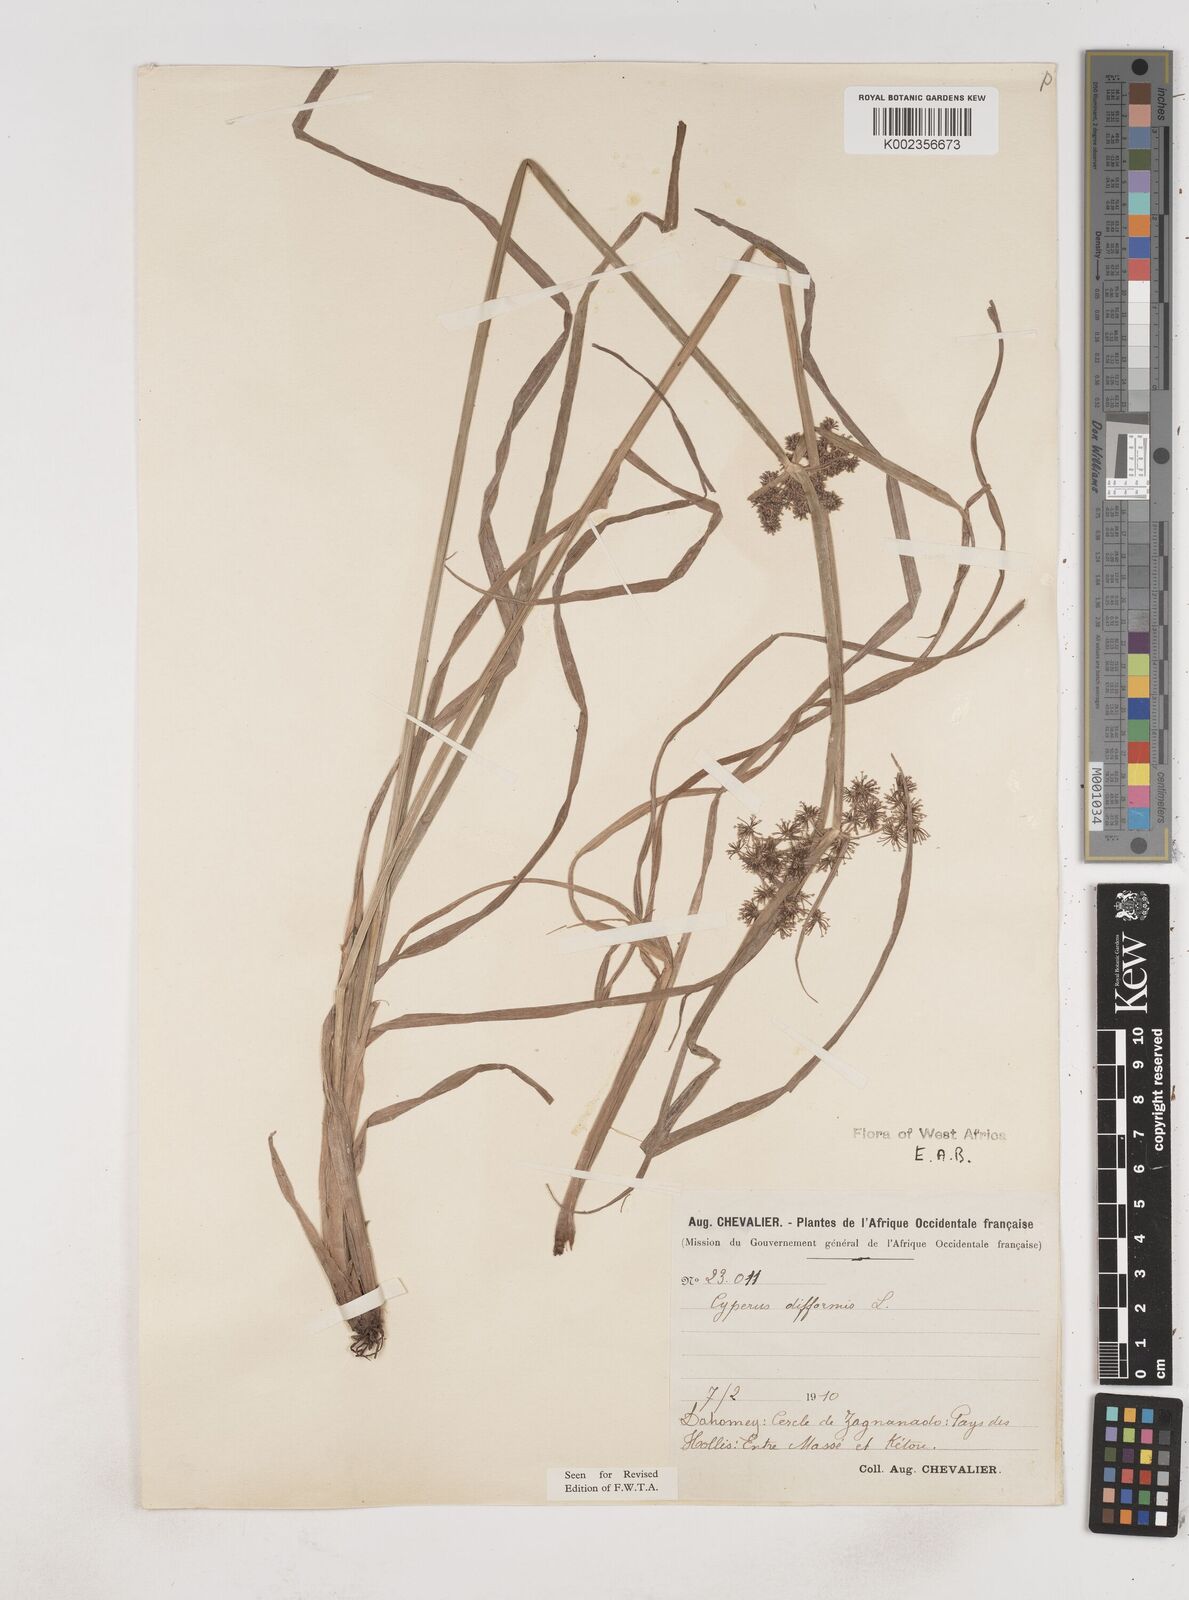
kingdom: Plantae
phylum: Tracheophyta
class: Liliopsida
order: Poales
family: Cyperaceae
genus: Cyperus
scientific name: Cyperus difformis
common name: Variable flatsedge
